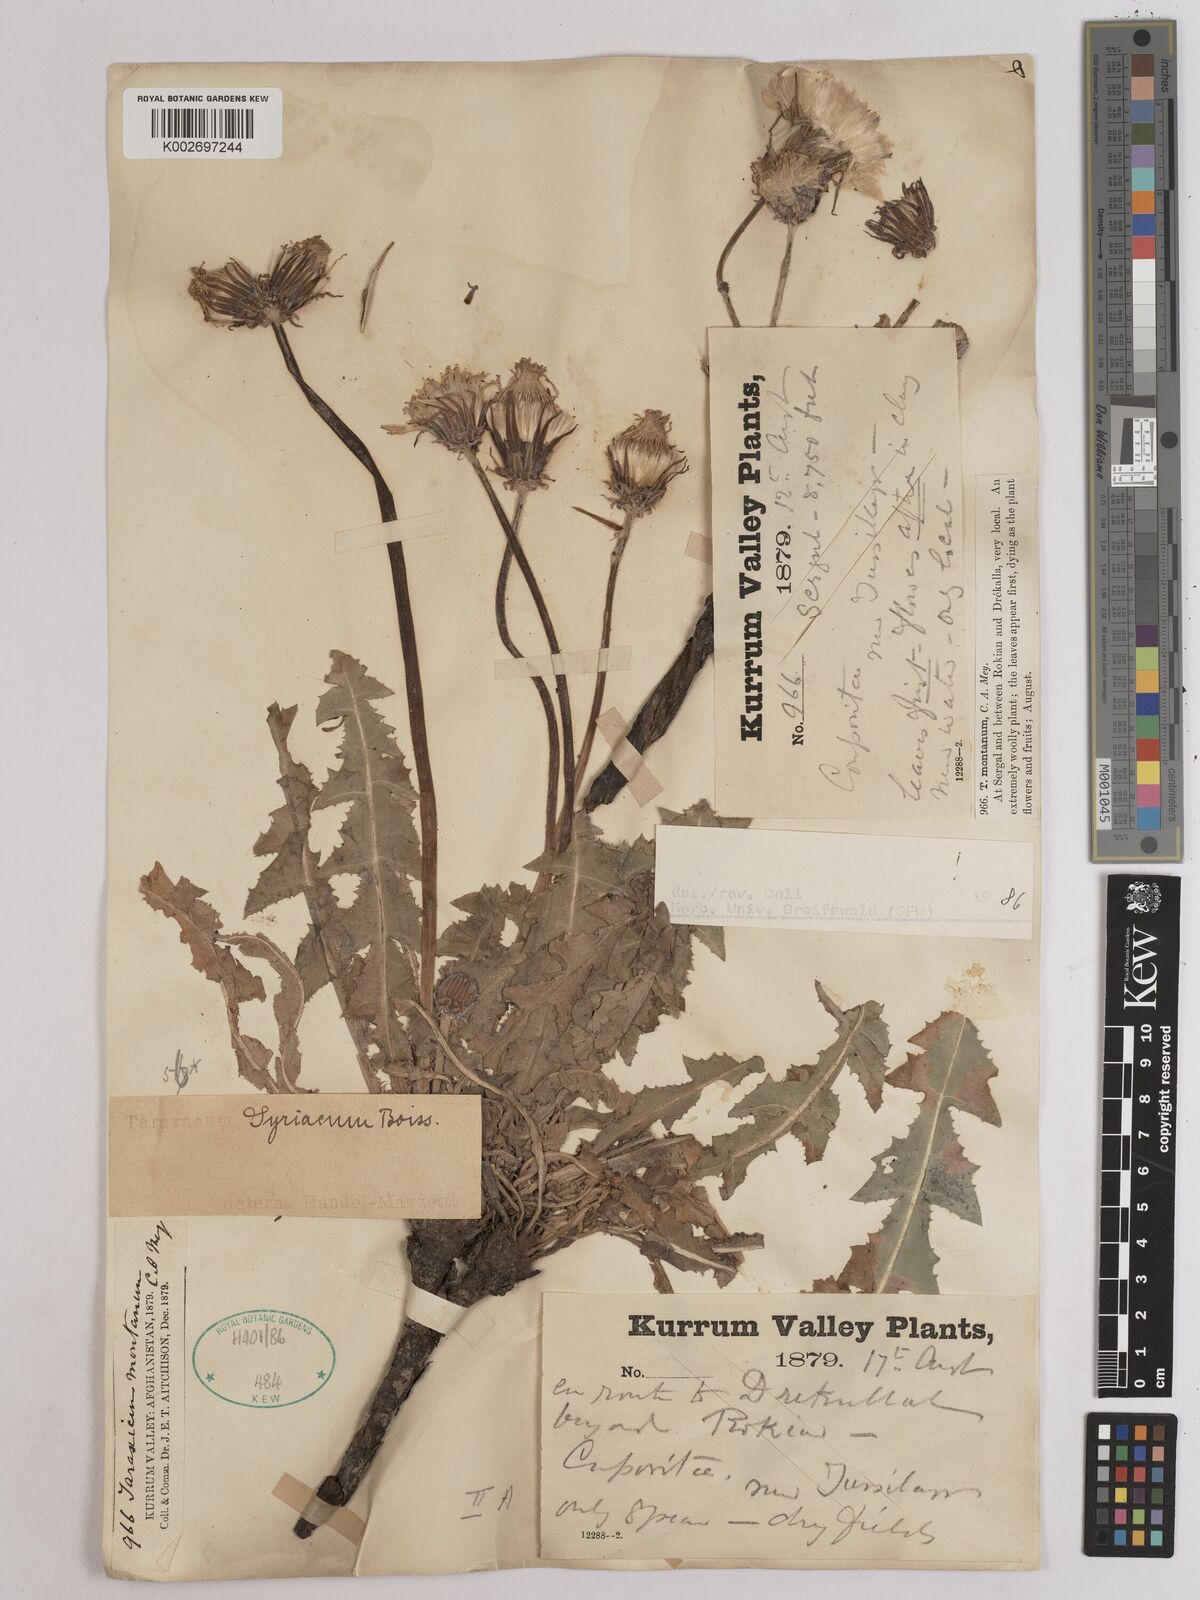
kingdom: Plantae
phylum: Tracheophyta
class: Magnoliopsida
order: Asterales
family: Asteraceae
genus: Taraxacum
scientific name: Taraxacum syriacum
